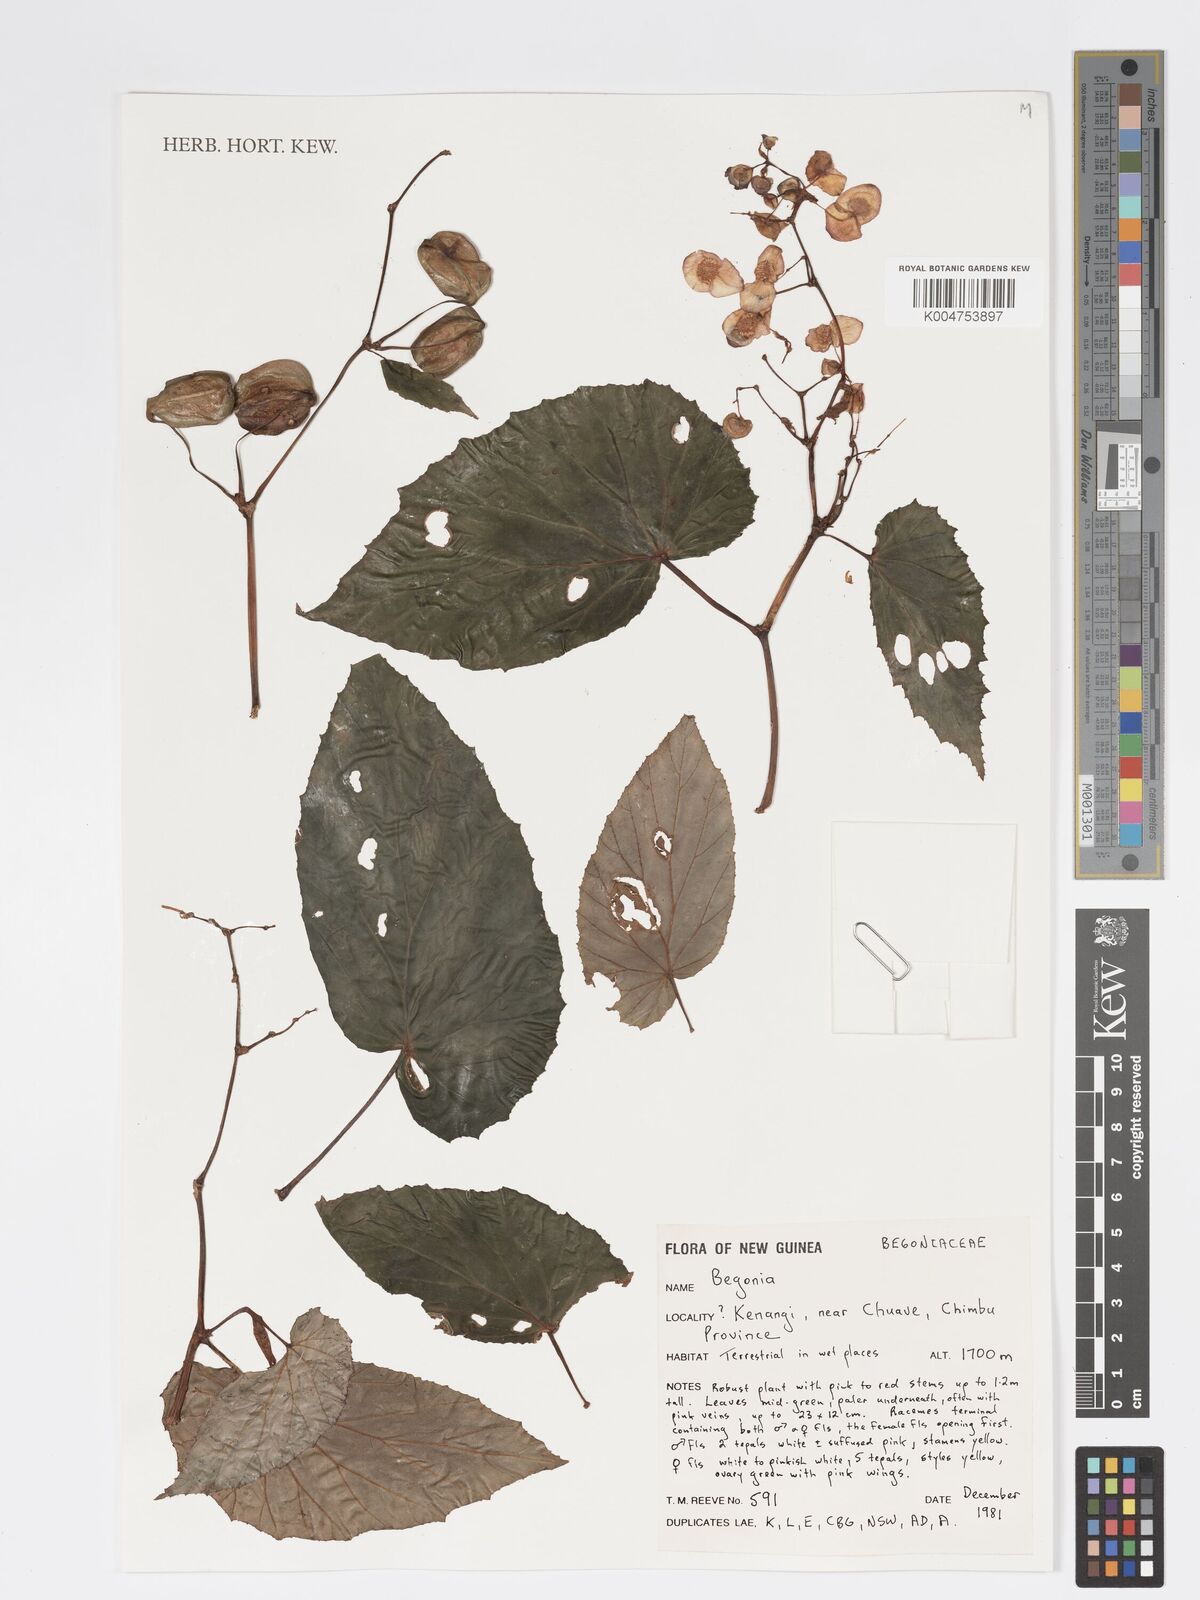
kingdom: Plantae
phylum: Tracheophyta
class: Magnoliopsida
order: Cucurbitales
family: Begoniaceae
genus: Begonia
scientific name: Begonia
